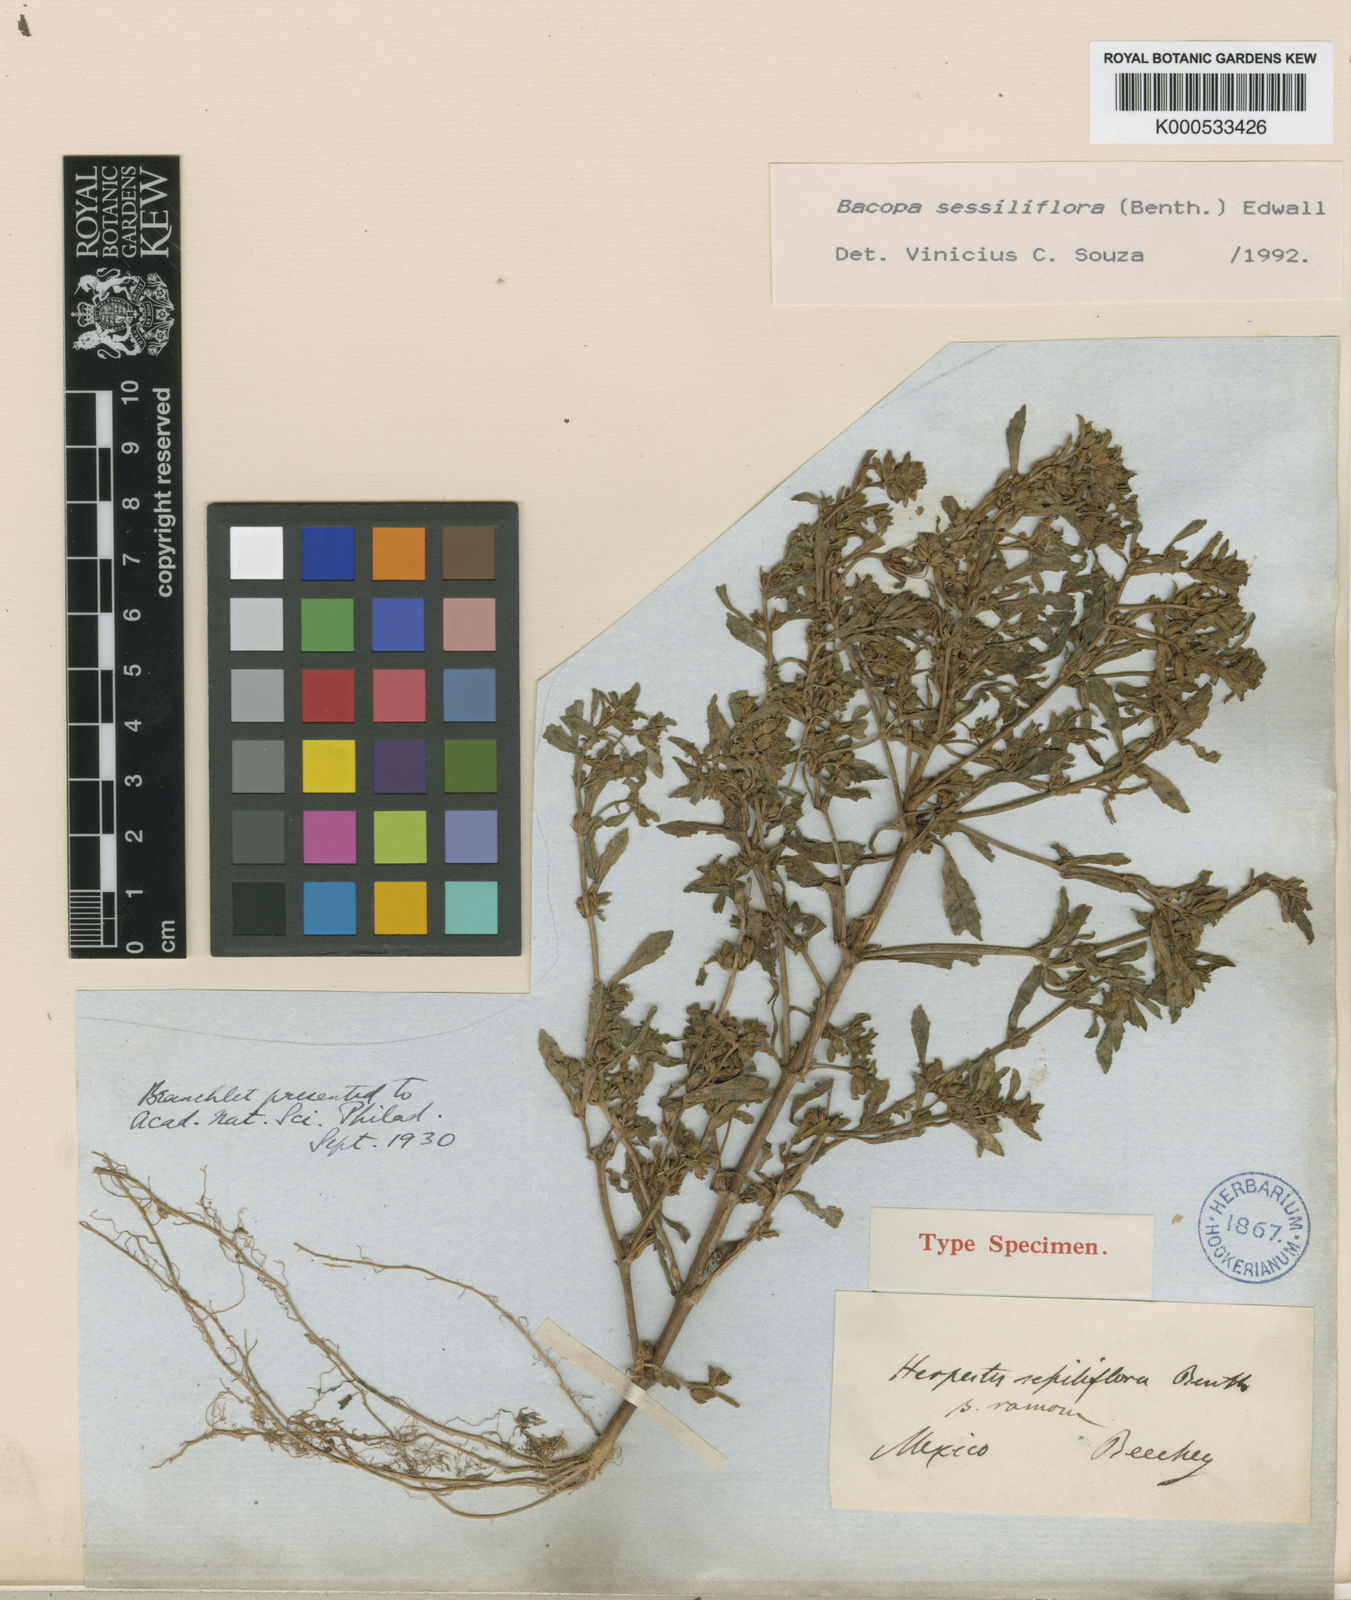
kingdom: Plantae
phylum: Tracheophyta
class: Magnoliopsida
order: Lamiales
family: Plantaginaceae
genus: Bacopa
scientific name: Bacopa sessiliflora
